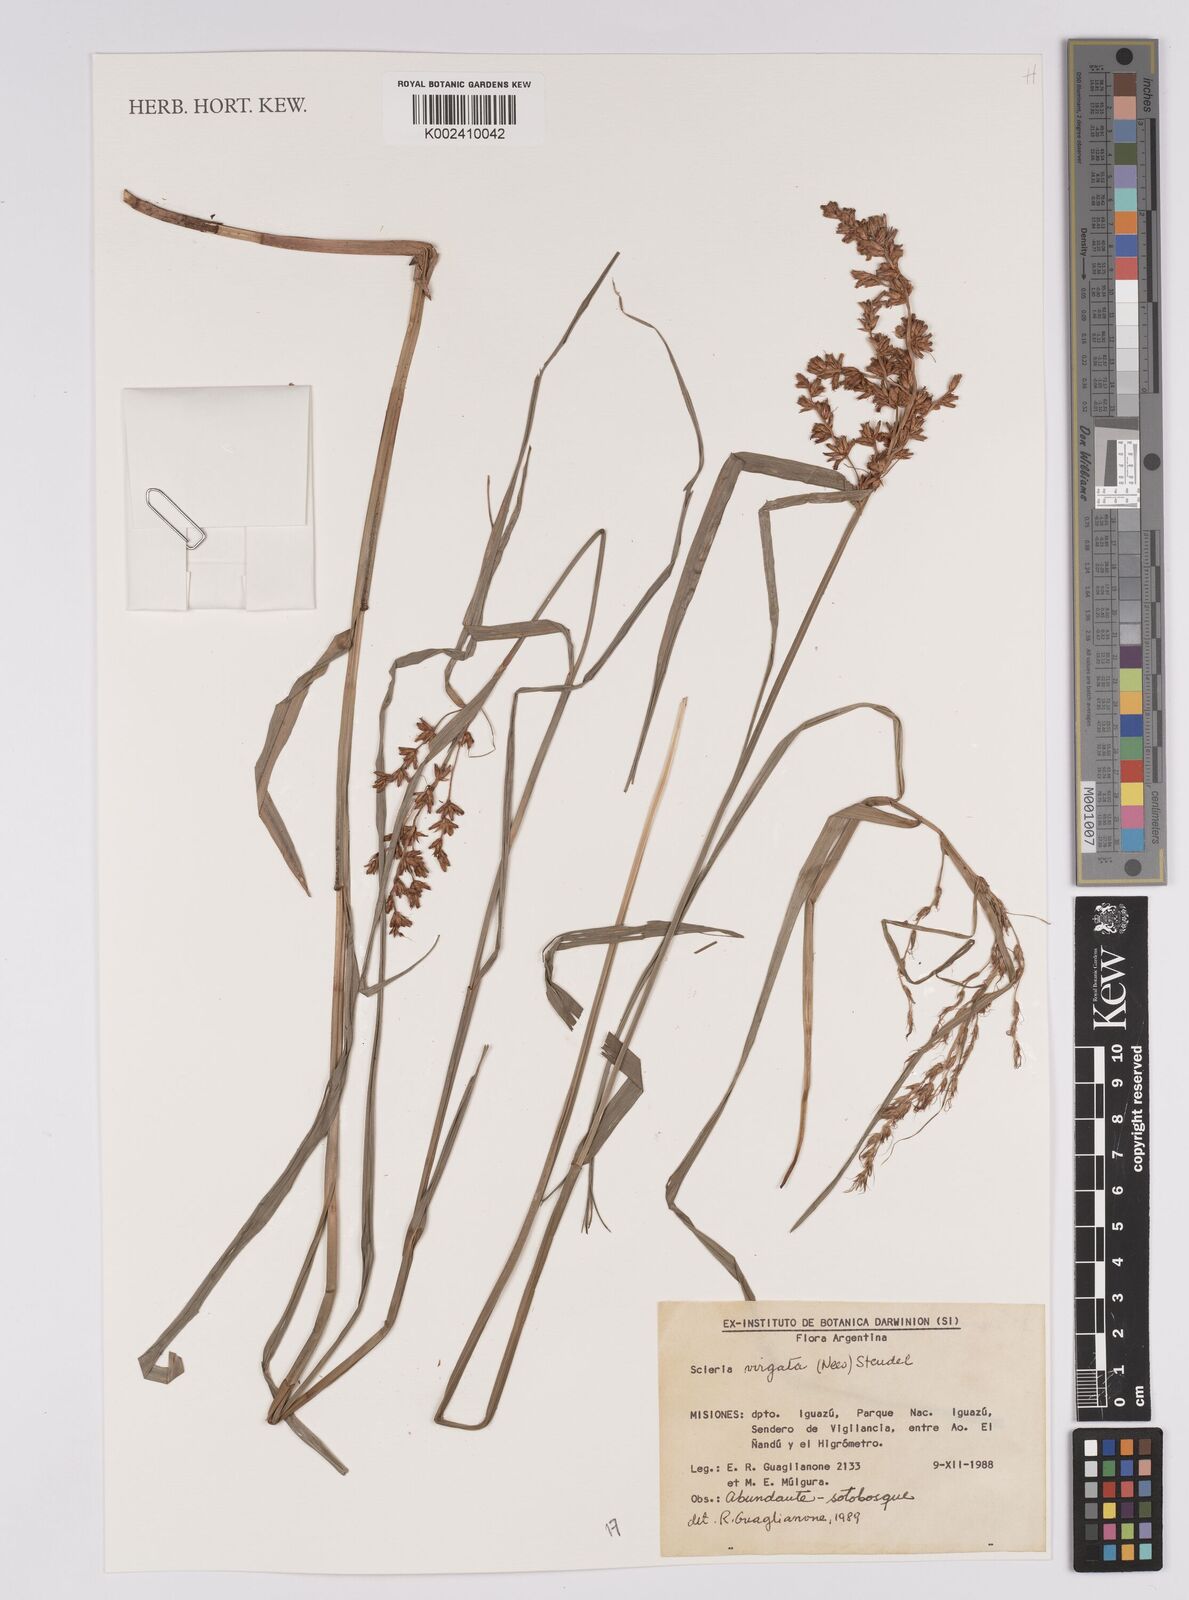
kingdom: Plantae
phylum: Tracheophyta
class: Liliopsida
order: Poales
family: Cyperaceae
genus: Scleria
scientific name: Scleria virgata
